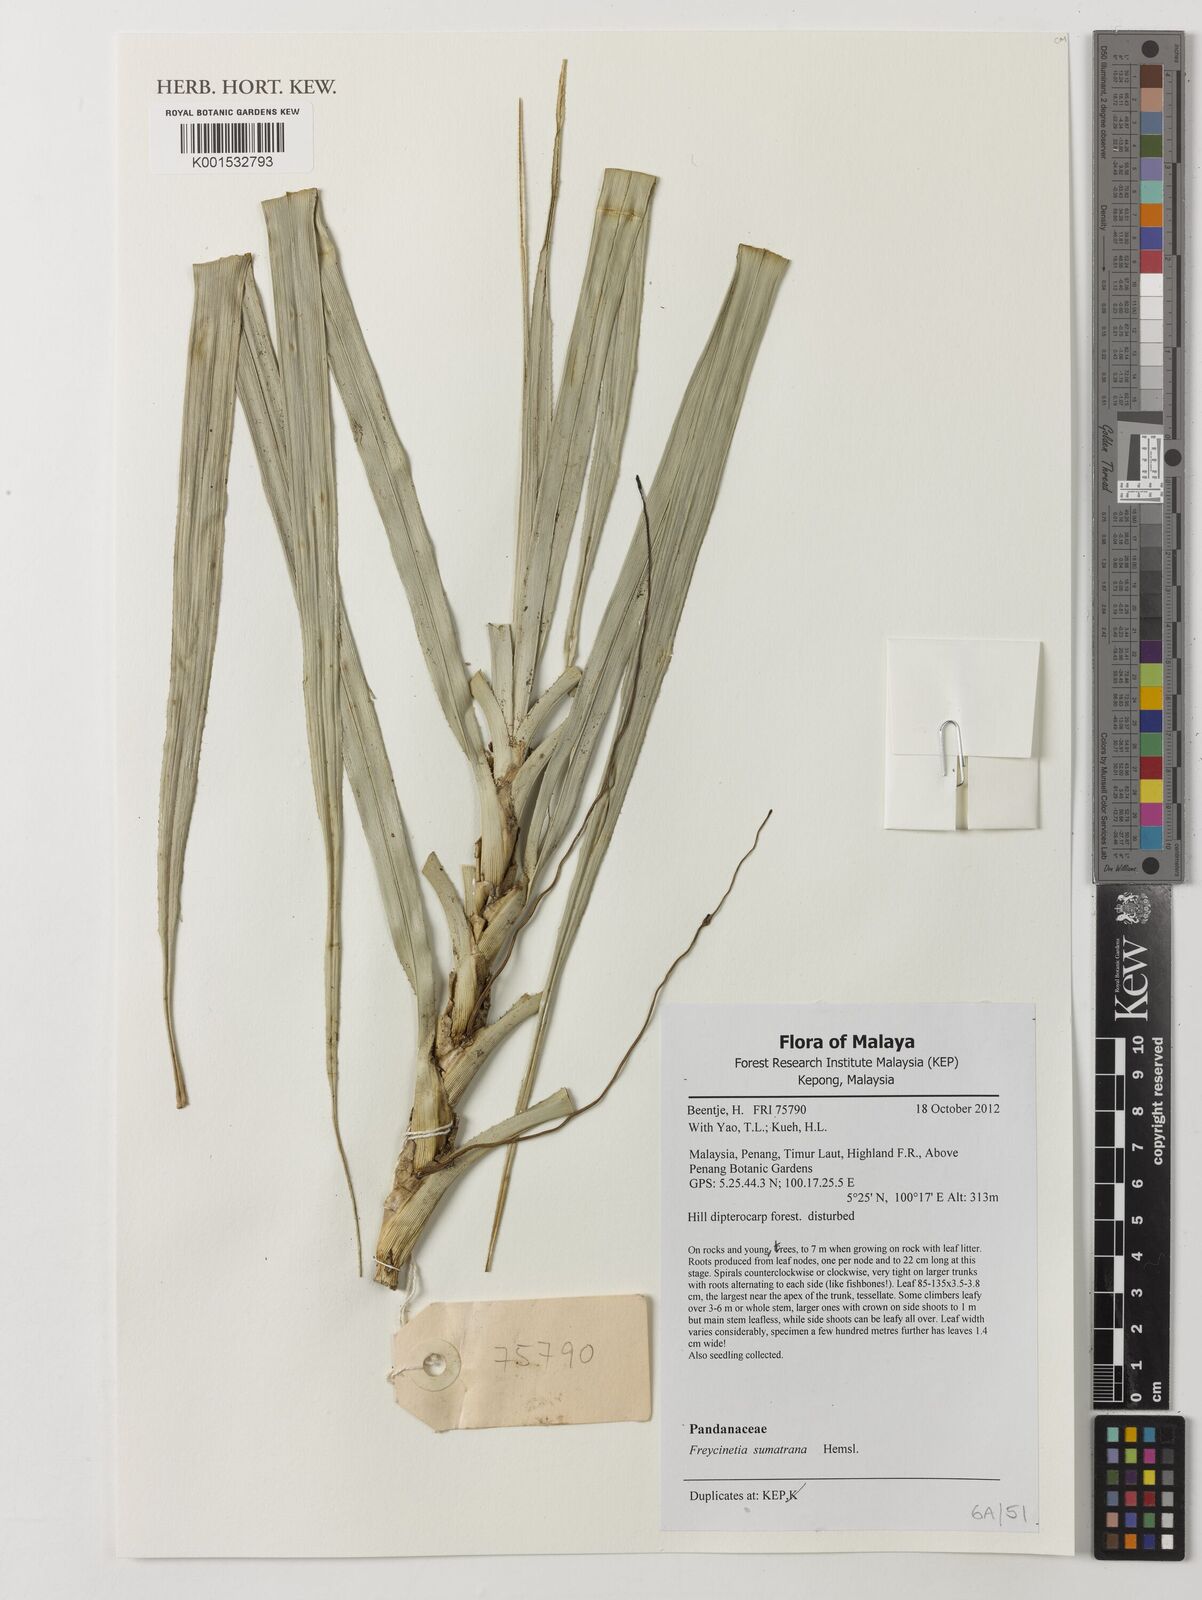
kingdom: Plantae
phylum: Tracheophyta
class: Liliopsida
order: Pandanales
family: Pandanaceae
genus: Freycinetia
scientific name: Freycinetia sumatrana
